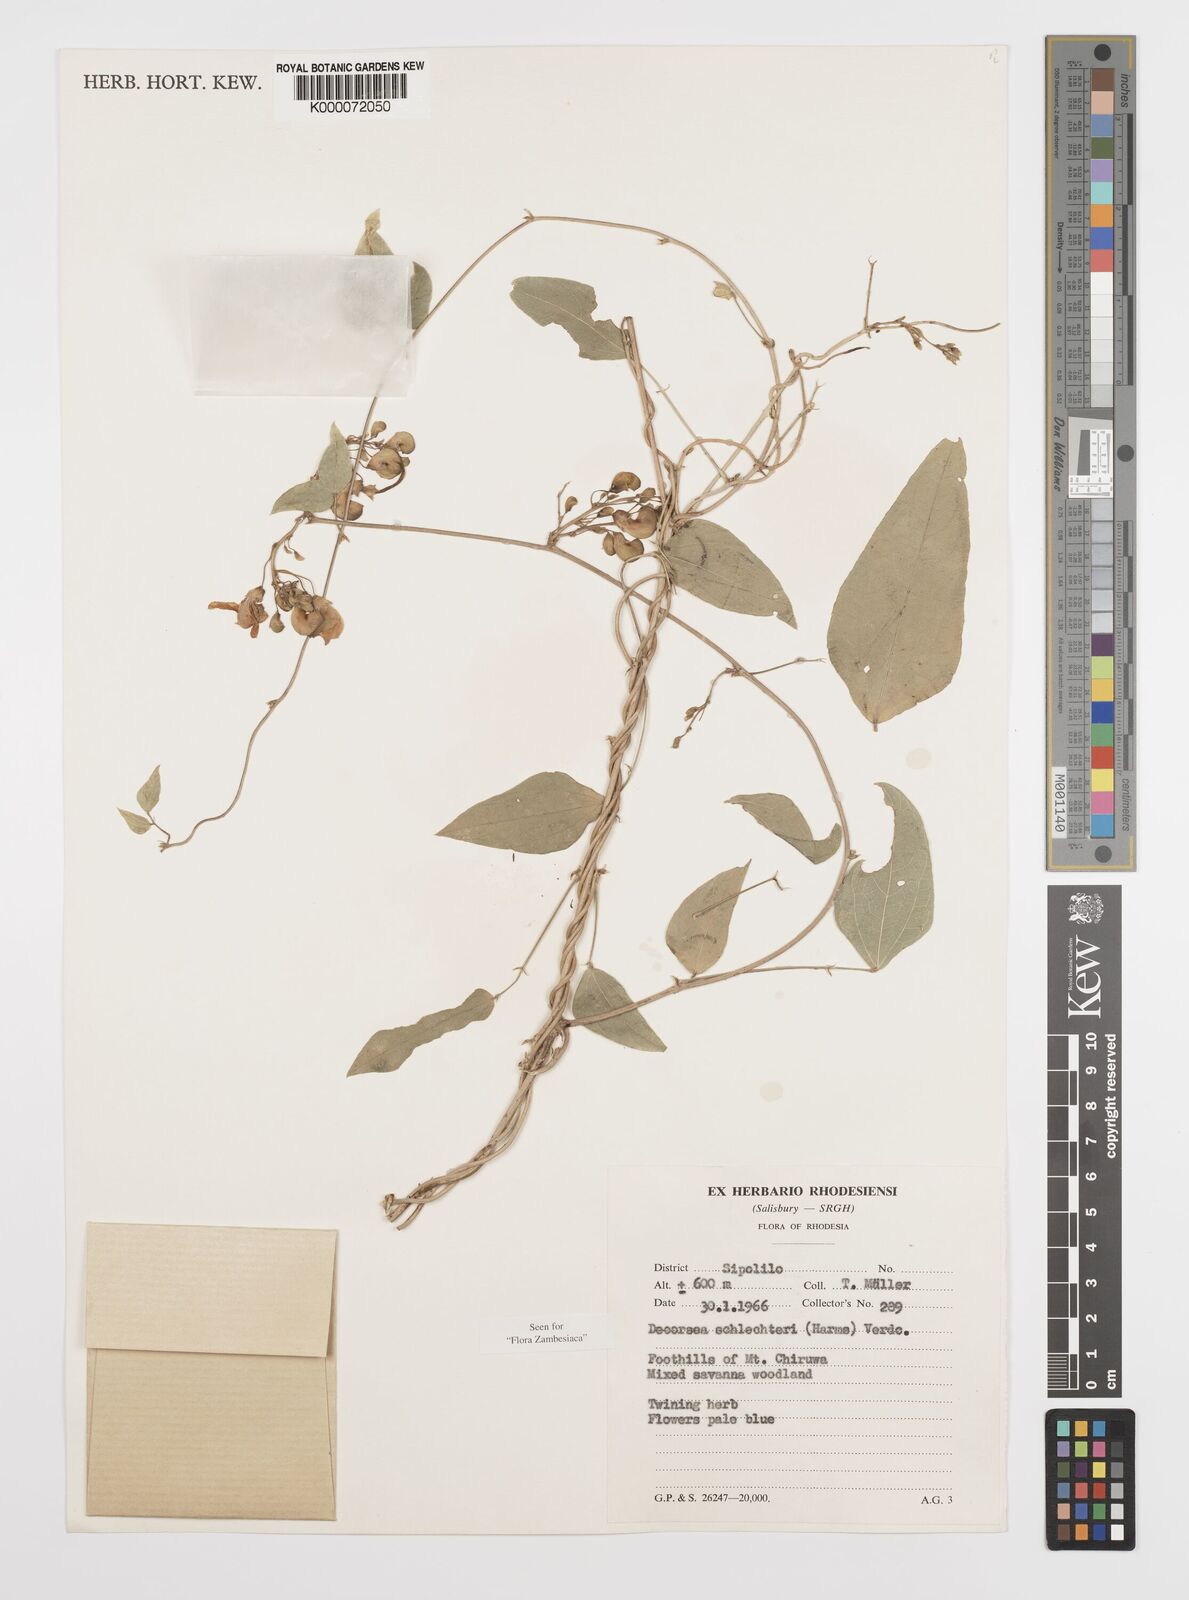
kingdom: Plantae
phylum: Tracheophyta
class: Magnoliopsida
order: Fabales
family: Fabaceae
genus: Decorsea
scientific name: Decorsea schlechteri
